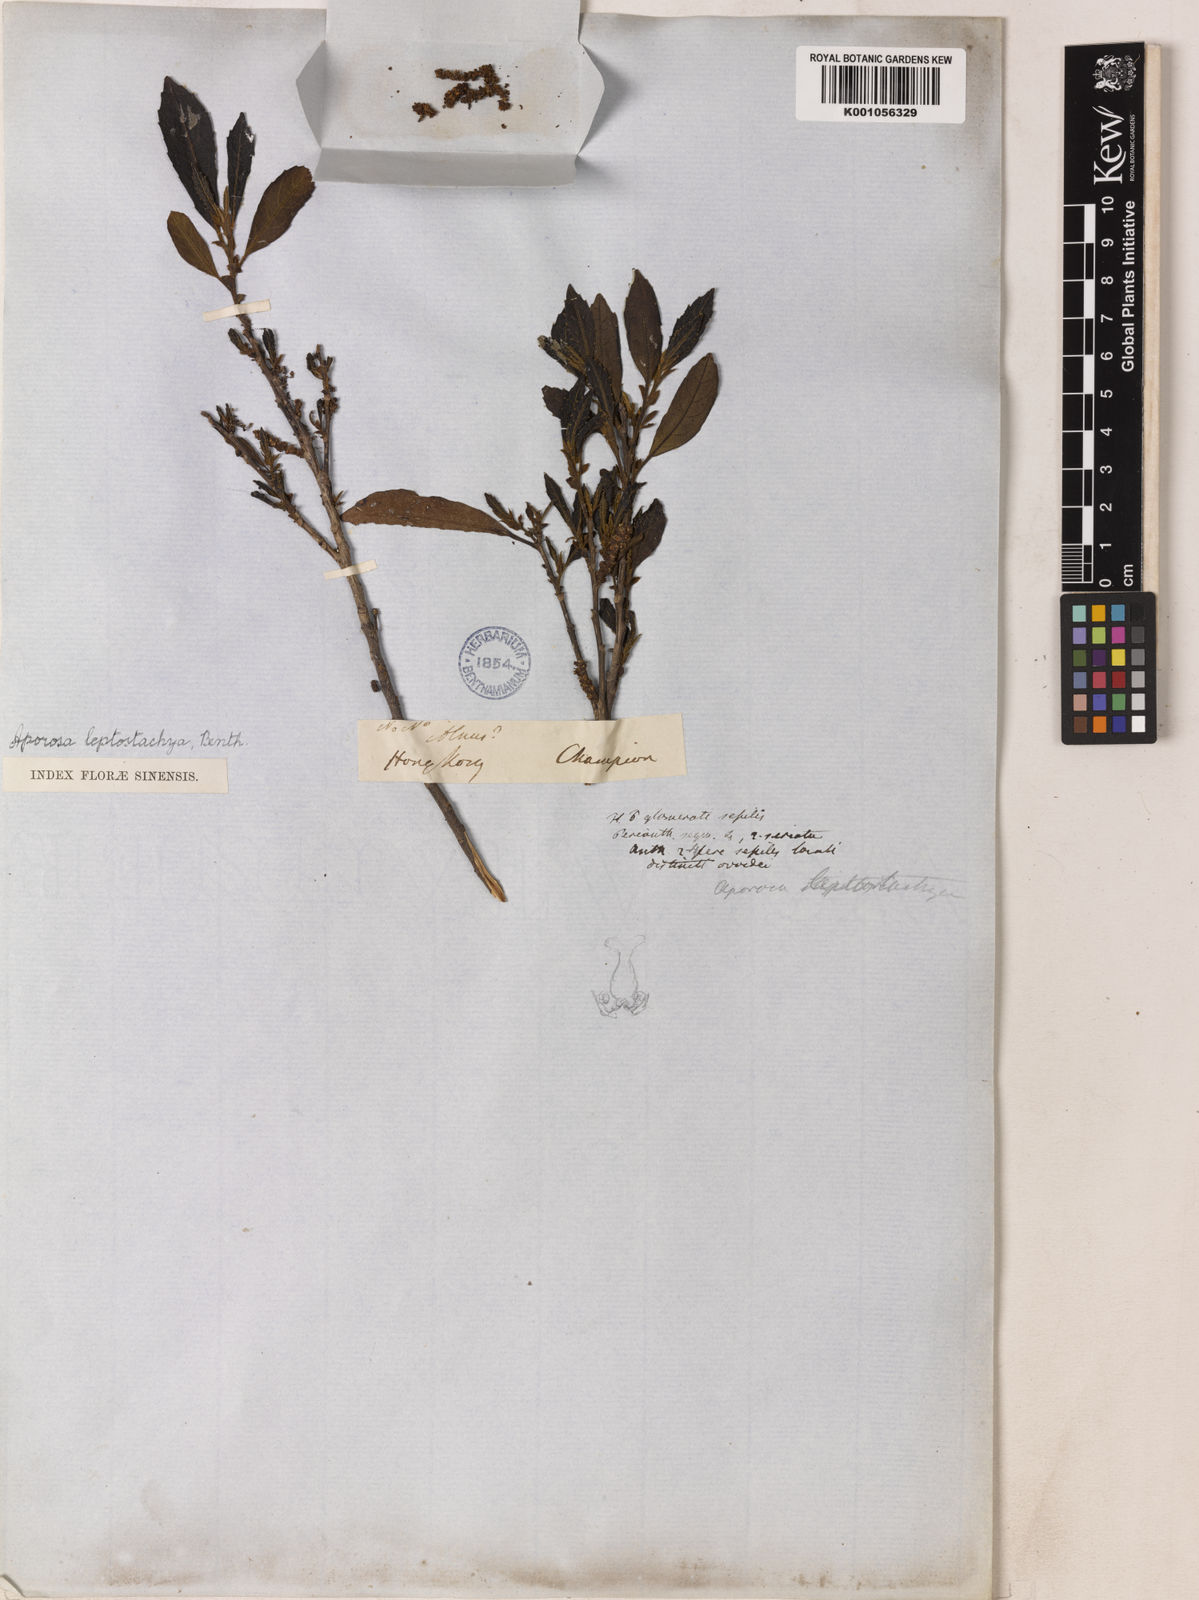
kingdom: Plantae
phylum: Tracheophyta
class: Magnoliopsida
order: Malpighiales
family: Phyllanthaceae
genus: Aporosa
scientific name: Aporosa octandra
